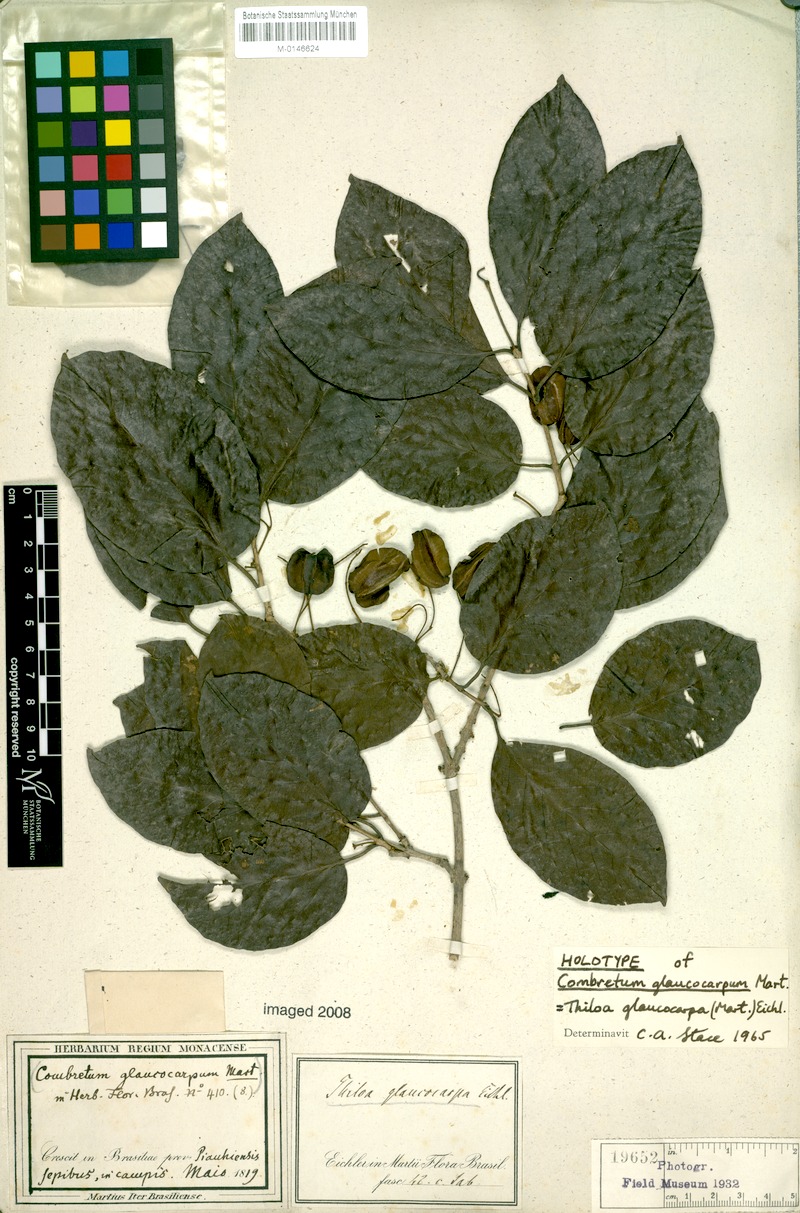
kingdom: Plantae
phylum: Tracheophyta
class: Magnoliopsida
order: Myrtales
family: Combretaceae
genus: Combretum
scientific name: Combretum glaucocarpum
